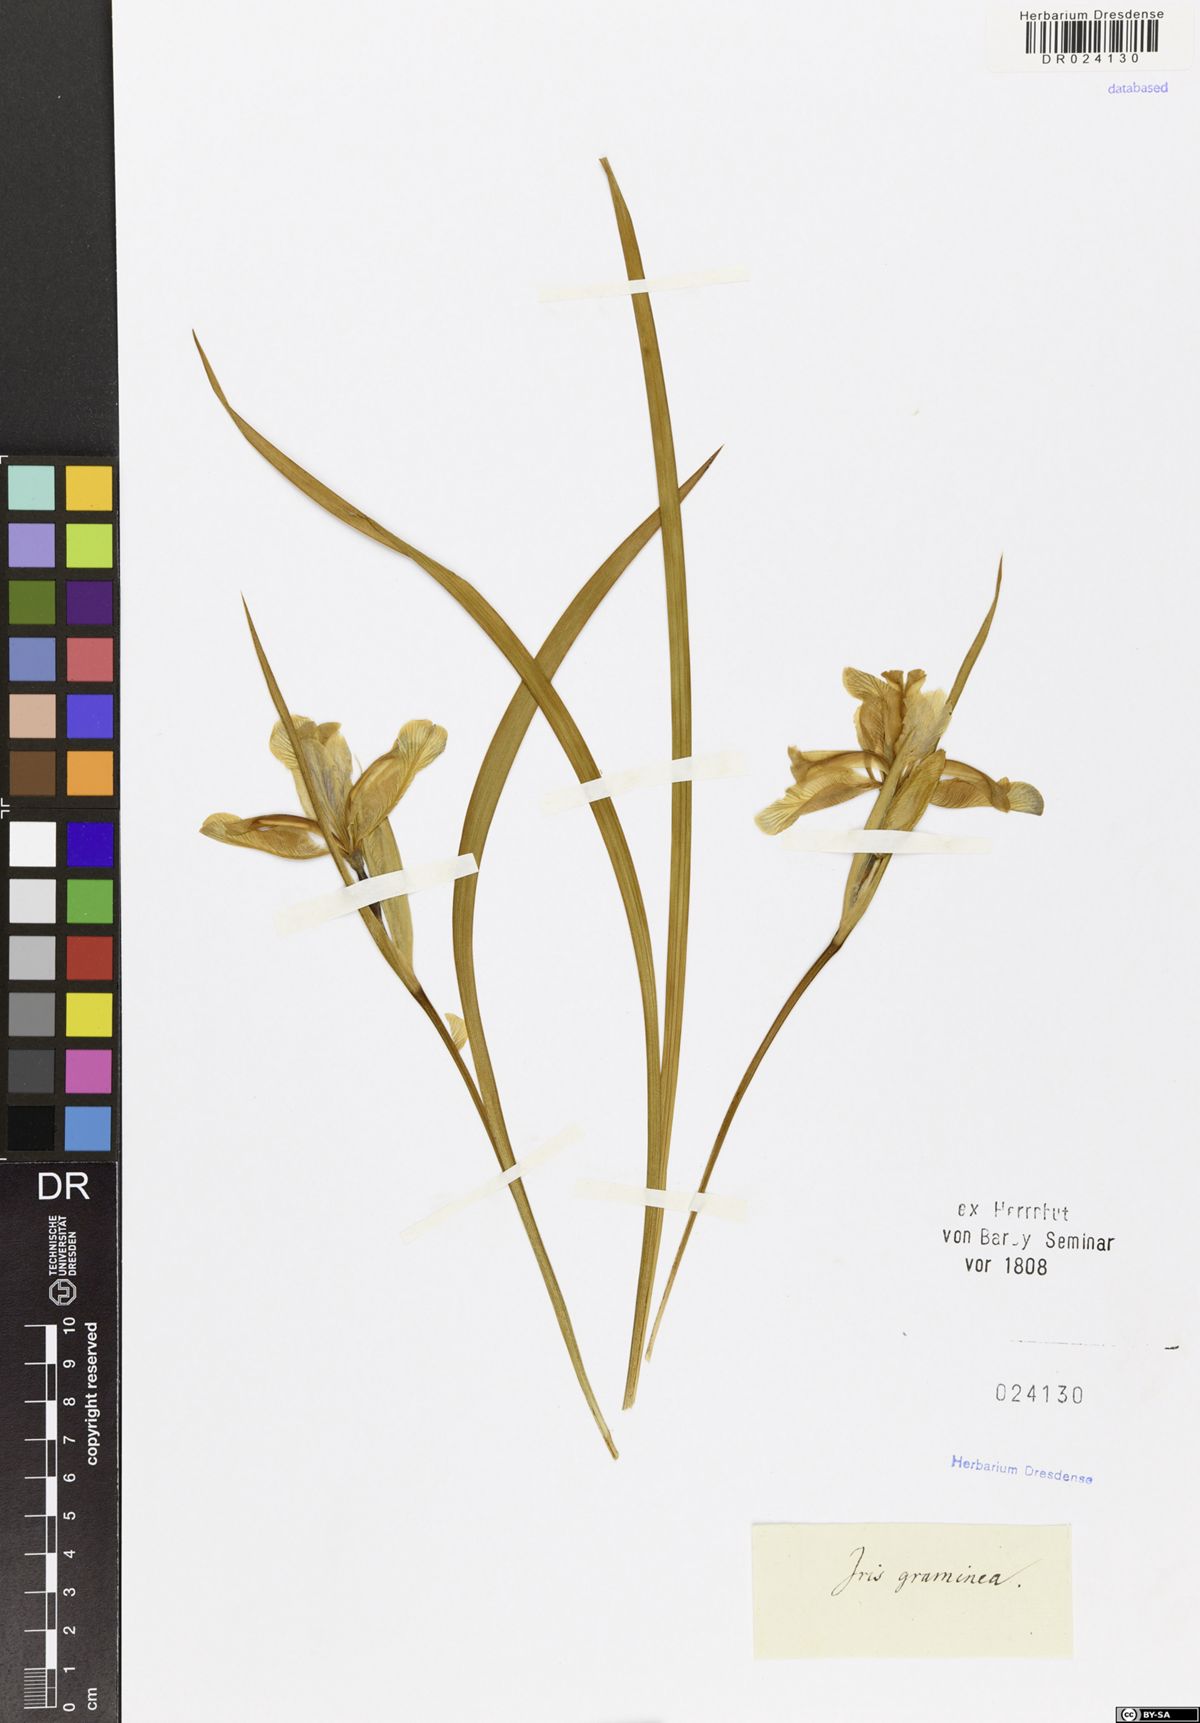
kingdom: Plantae
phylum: Tracheophyta
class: Liliopsida
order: Asparagales
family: Iridaceae
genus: Iris
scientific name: Iris graminea
